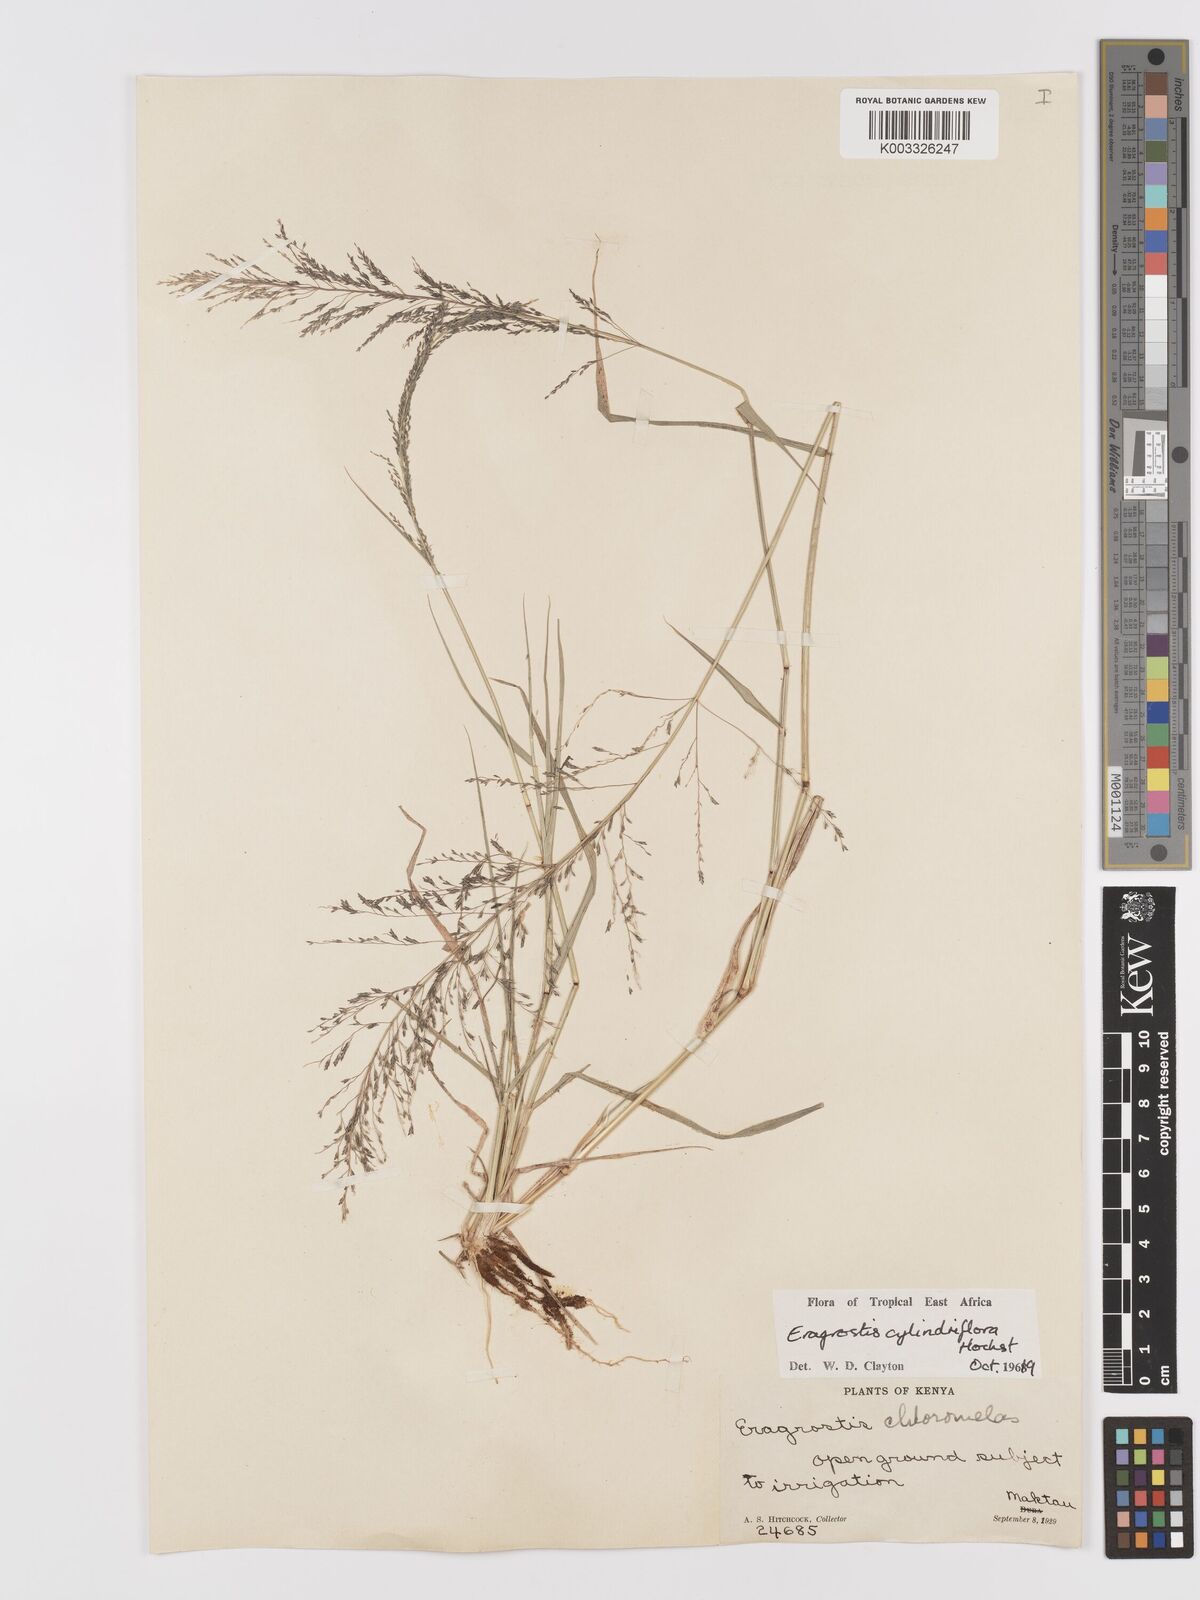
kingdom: Plantae
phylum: Tracheophyta
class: Liliopsida
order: Poales
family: Poaceae
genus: Eragrostis
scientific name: Eragrostis cylindriflora
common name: Cylinderflower lovegrass
